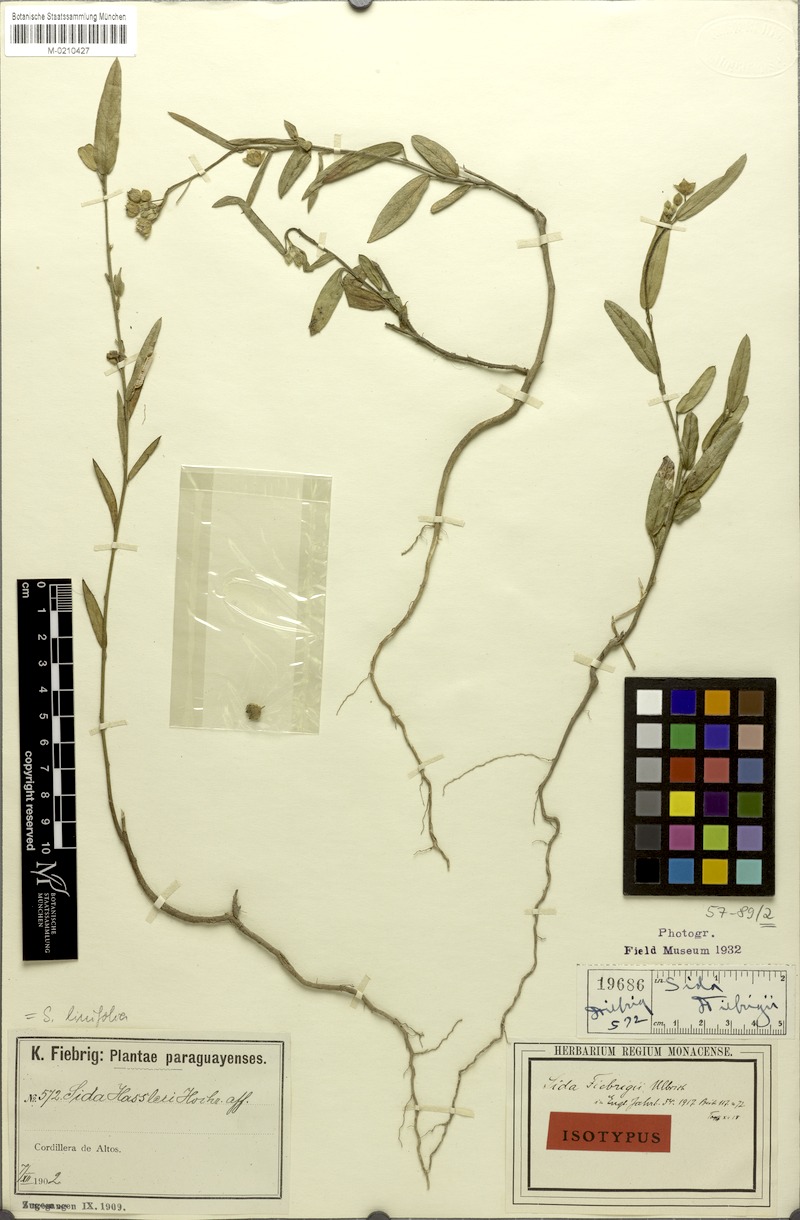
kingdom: Plantae
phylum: Tracheophyta
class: Magnoliopsida
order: Malvales
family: Malvaceae
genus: Sida
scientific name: Sida linifolia
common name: Flaxleaf fanpetals
